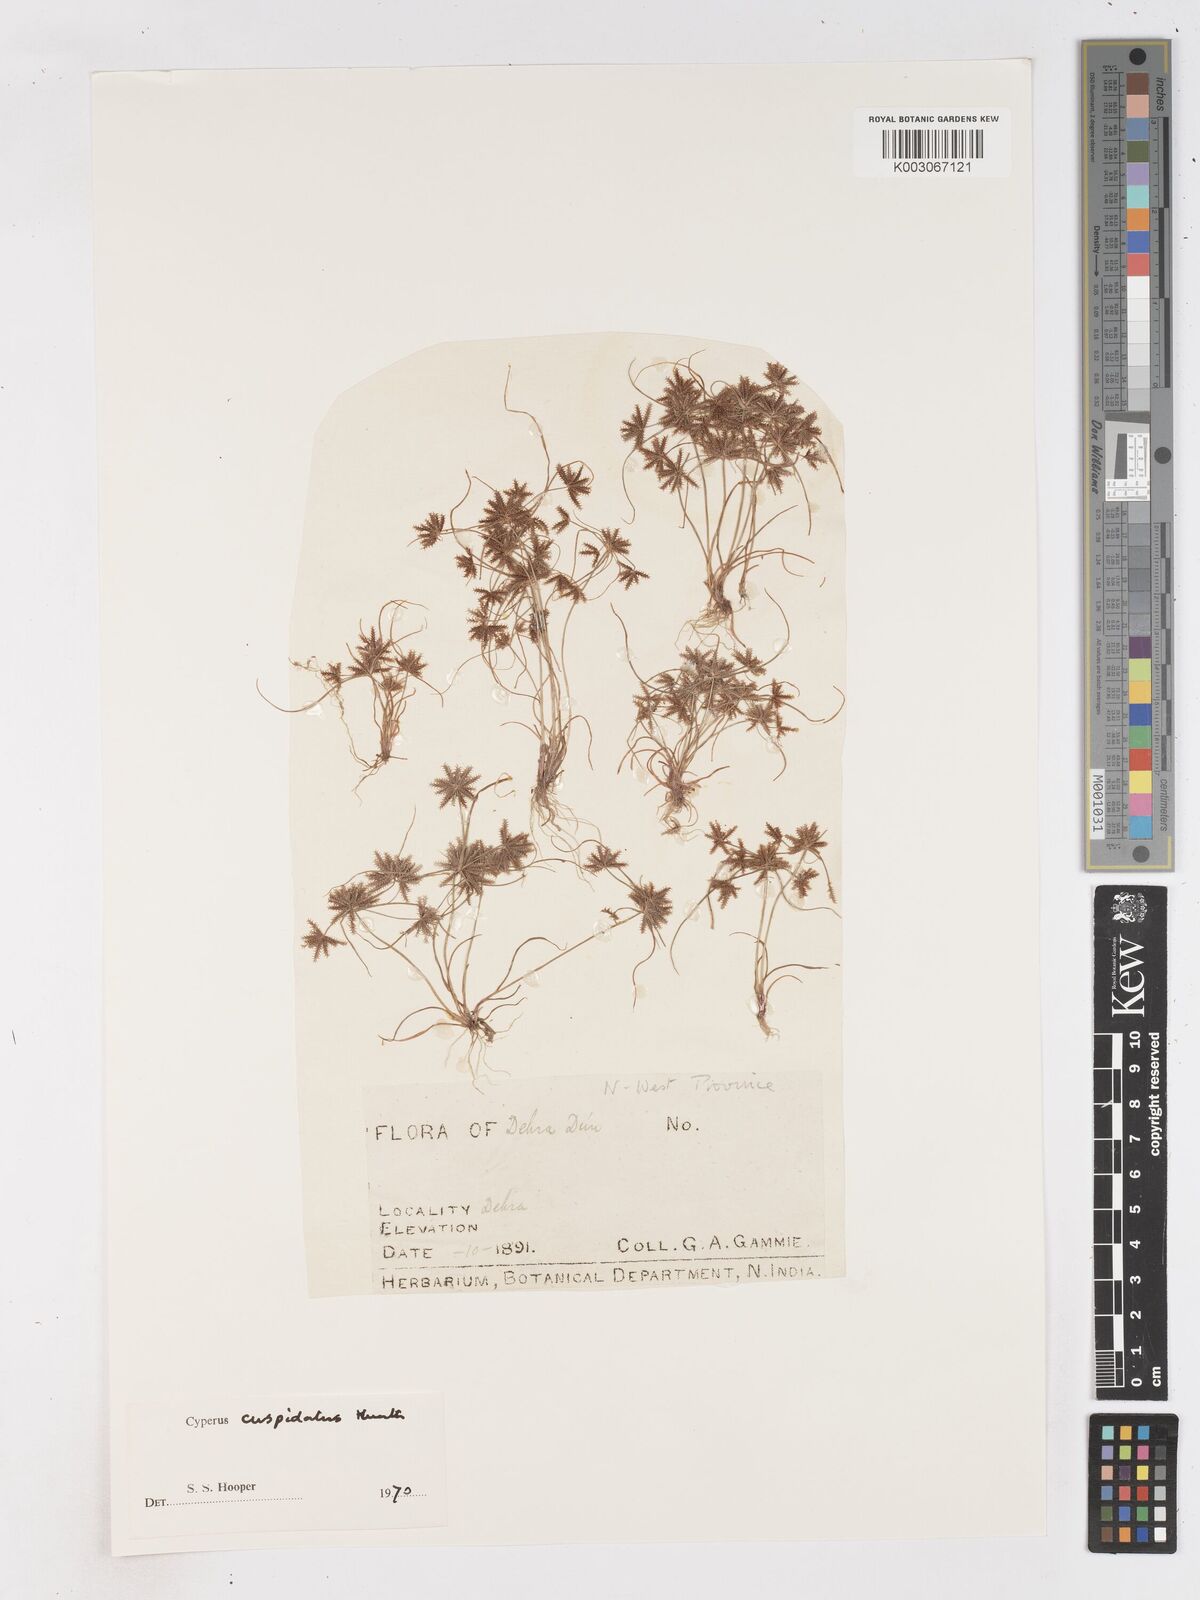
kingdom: Plantae
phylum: Tracheophyta
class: Liliopsida
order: Poales
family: Cyperaceae
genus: Cyperus
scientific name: Cyperus cuspidatus
